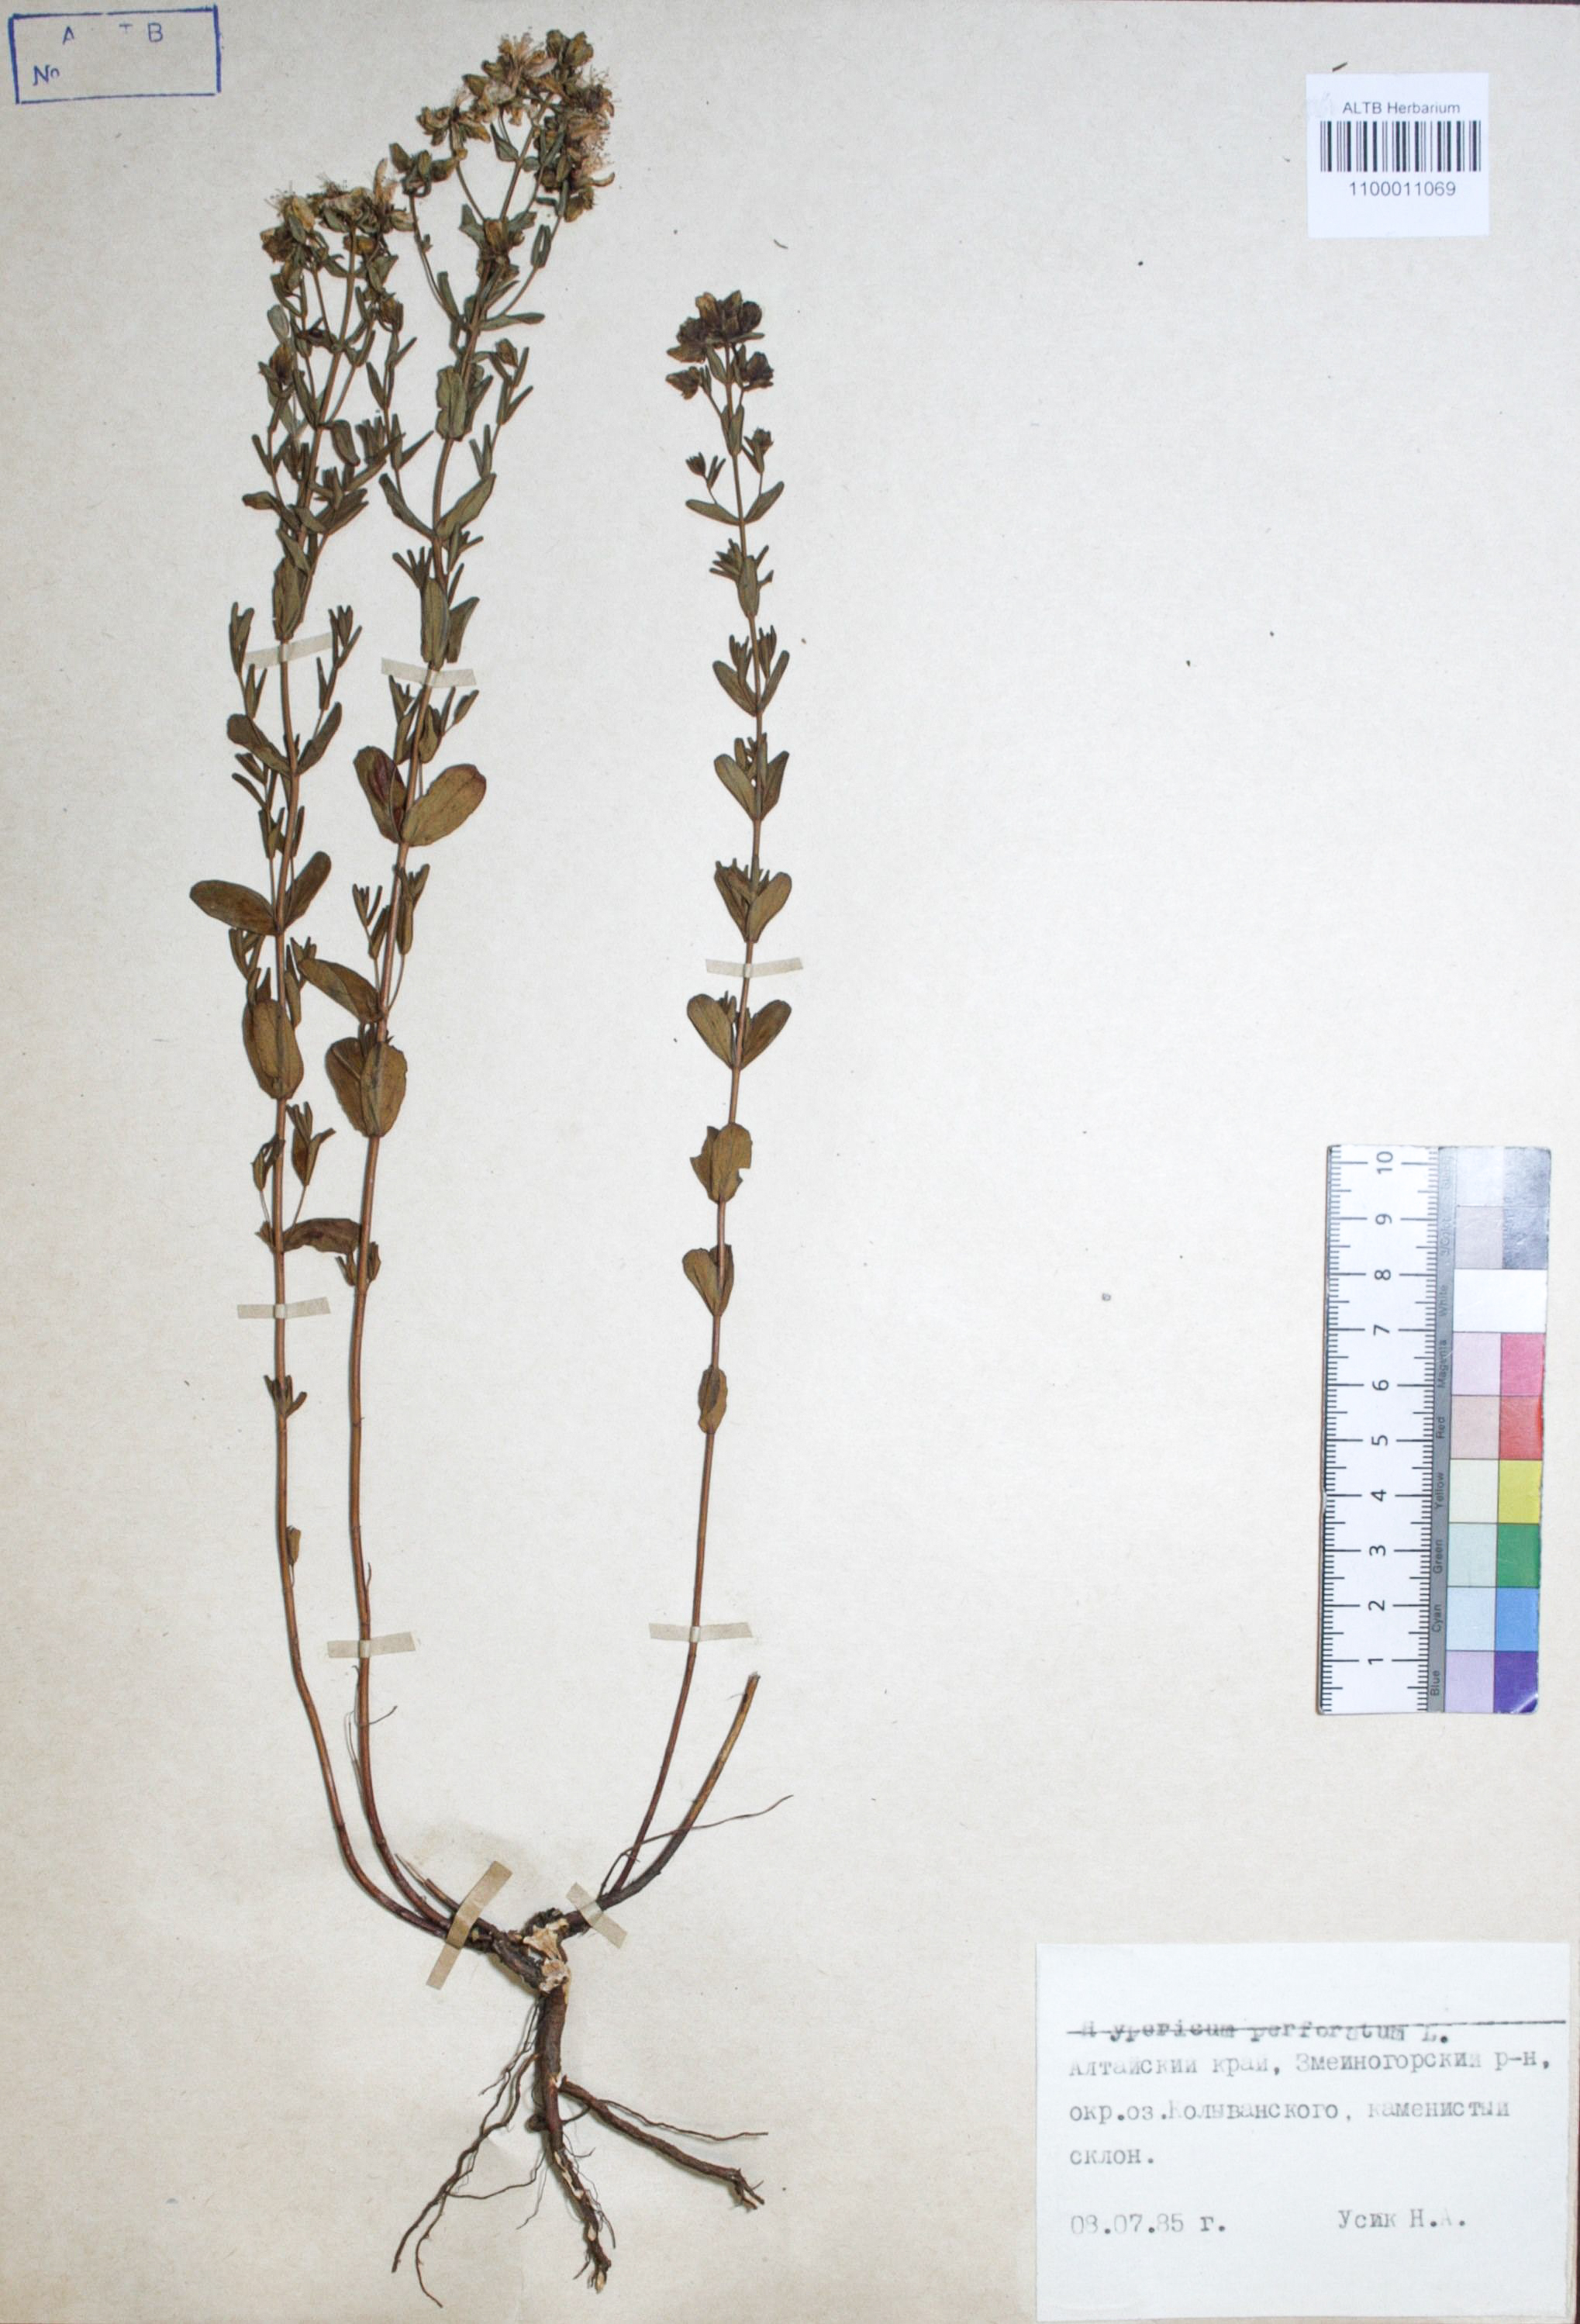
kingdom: Plantae
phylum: Tracheophyta
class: Magnoliopsida
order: Malpighiales
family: Hypericaceae
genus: Hypericum
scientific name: Hypericum perforatum
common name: Common st. johnswort
